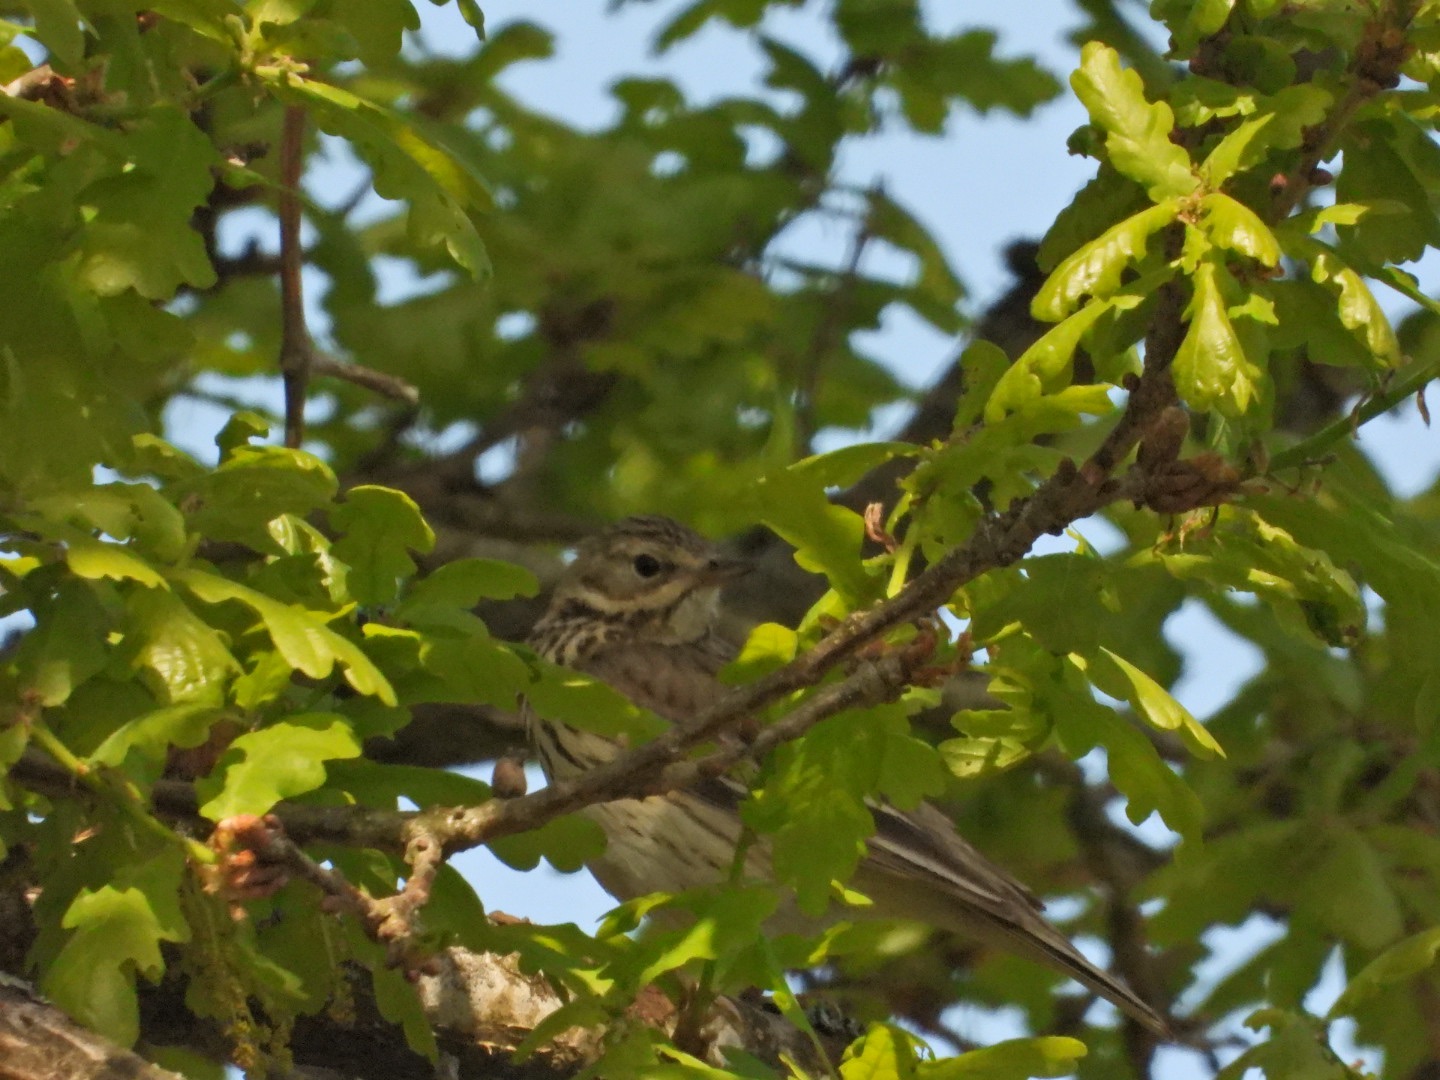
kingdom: Animalia
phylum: Chordata
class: Aves
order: Passeriformes
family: Motacillidae
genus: Anthus
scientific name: Anthus trivialis
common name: Skovpiber
